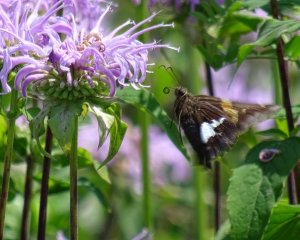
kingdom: Animalia
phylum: Arthropoda
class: Insecta
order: Lepidoptera
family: Hesperiidae
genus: Epargyreus
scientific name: Epargyreus clarus
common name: Silver-spotted Skipper
